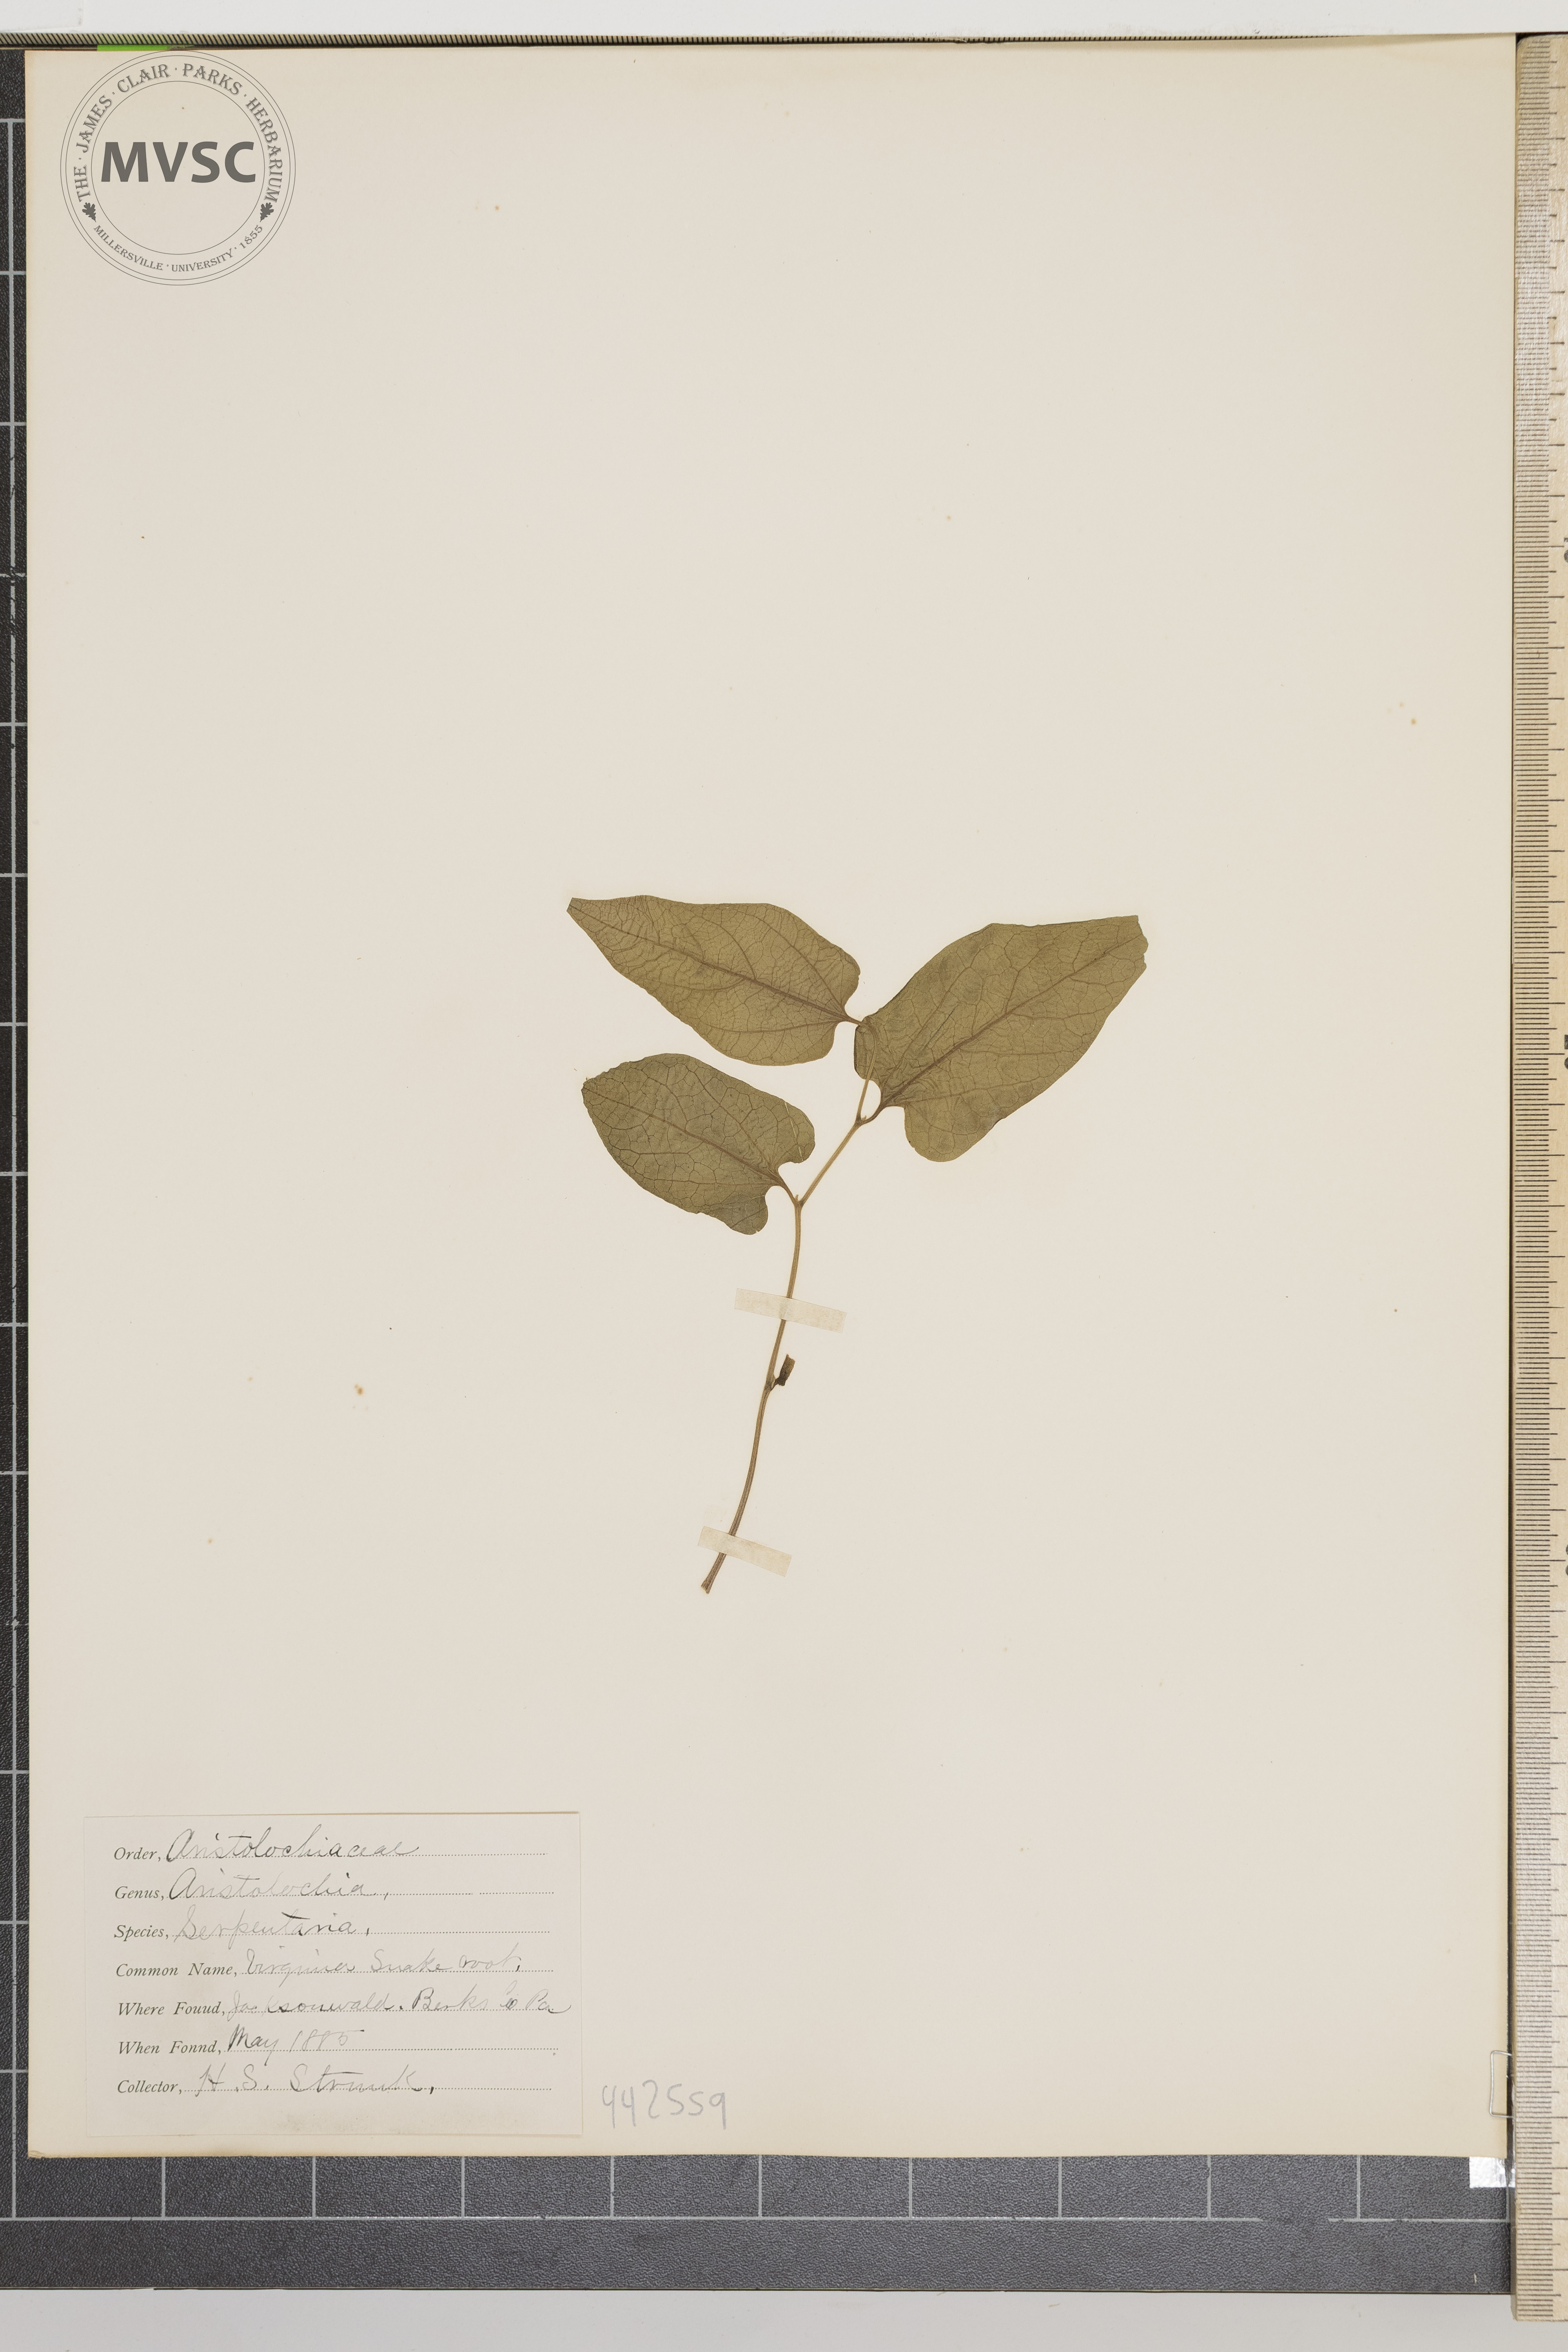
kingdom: Plantae
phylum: Tracheophyta
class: Magnoliopsida
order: Piperales
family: Aristolochiaceae
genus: Endodeca
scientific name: Endodeca serpentaria
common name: Virginia snakeroot
